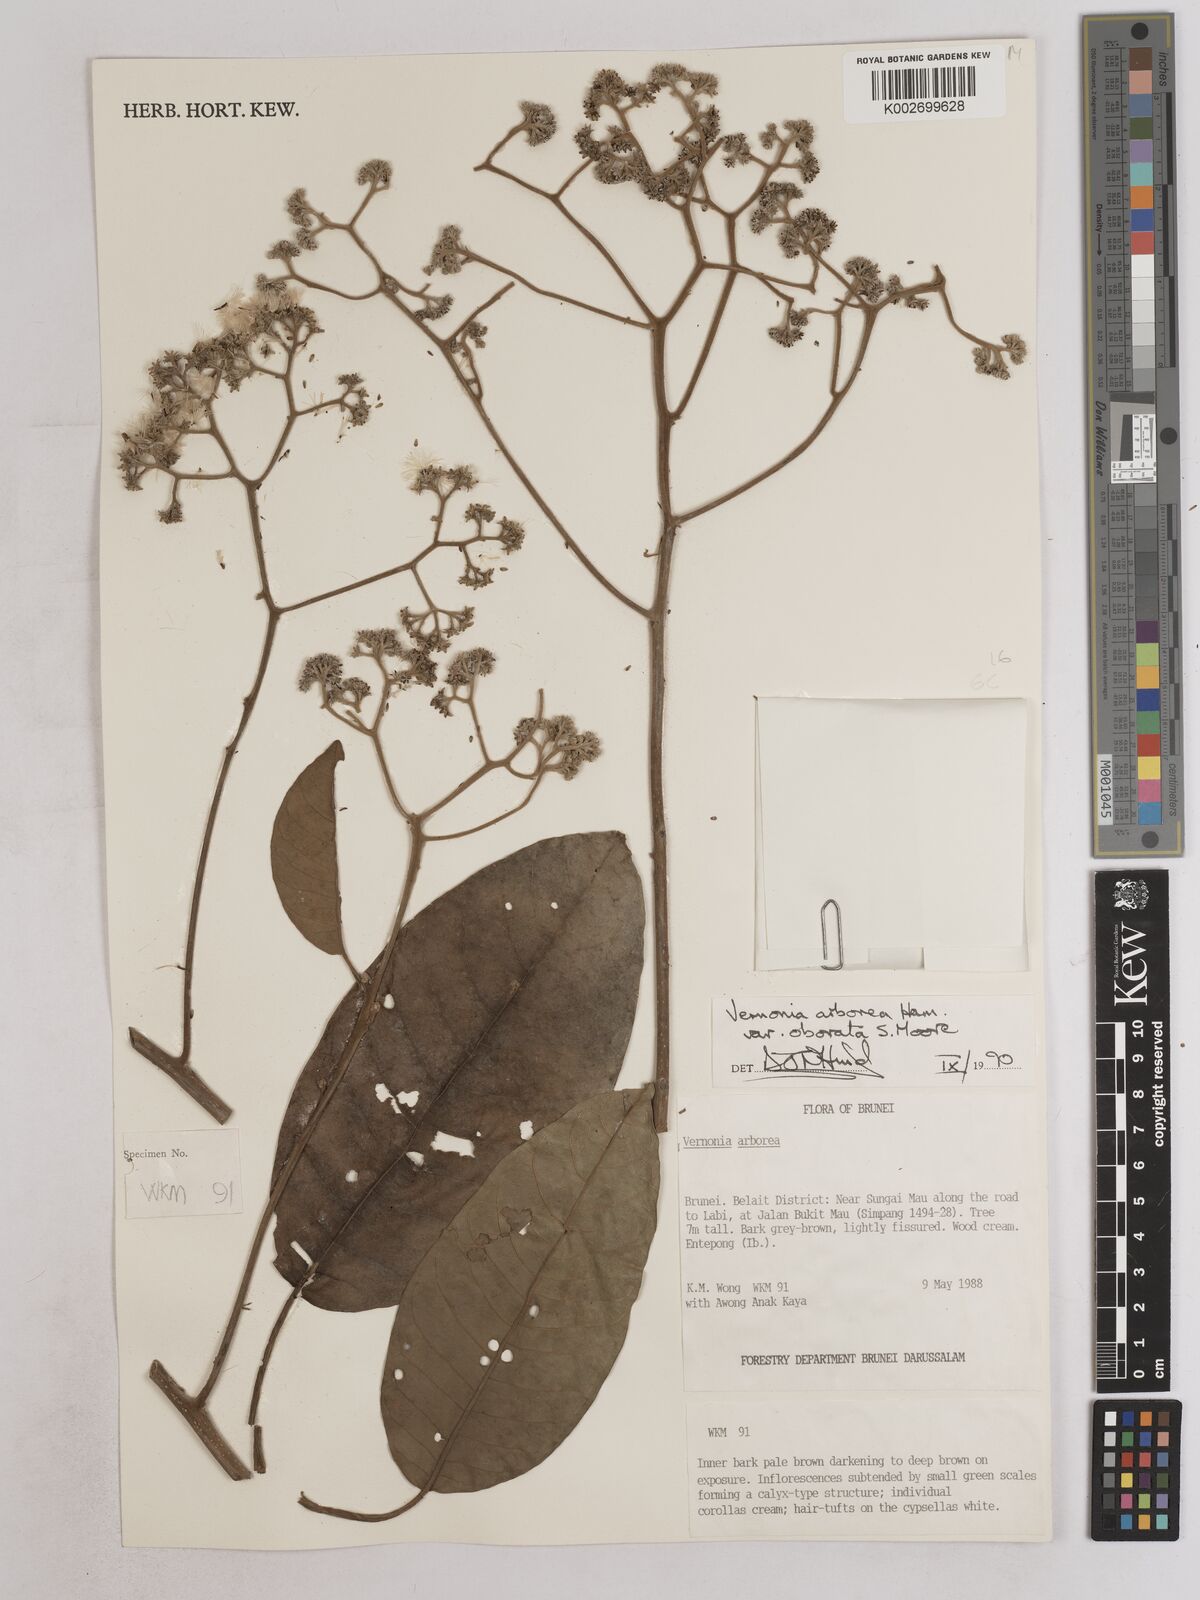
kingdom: Plantae
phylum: Tracheophyta
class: Magnoliopsida
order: Asterales
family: Asteraceae
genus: Strobocalyx
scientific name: Strobocalyx arborea
